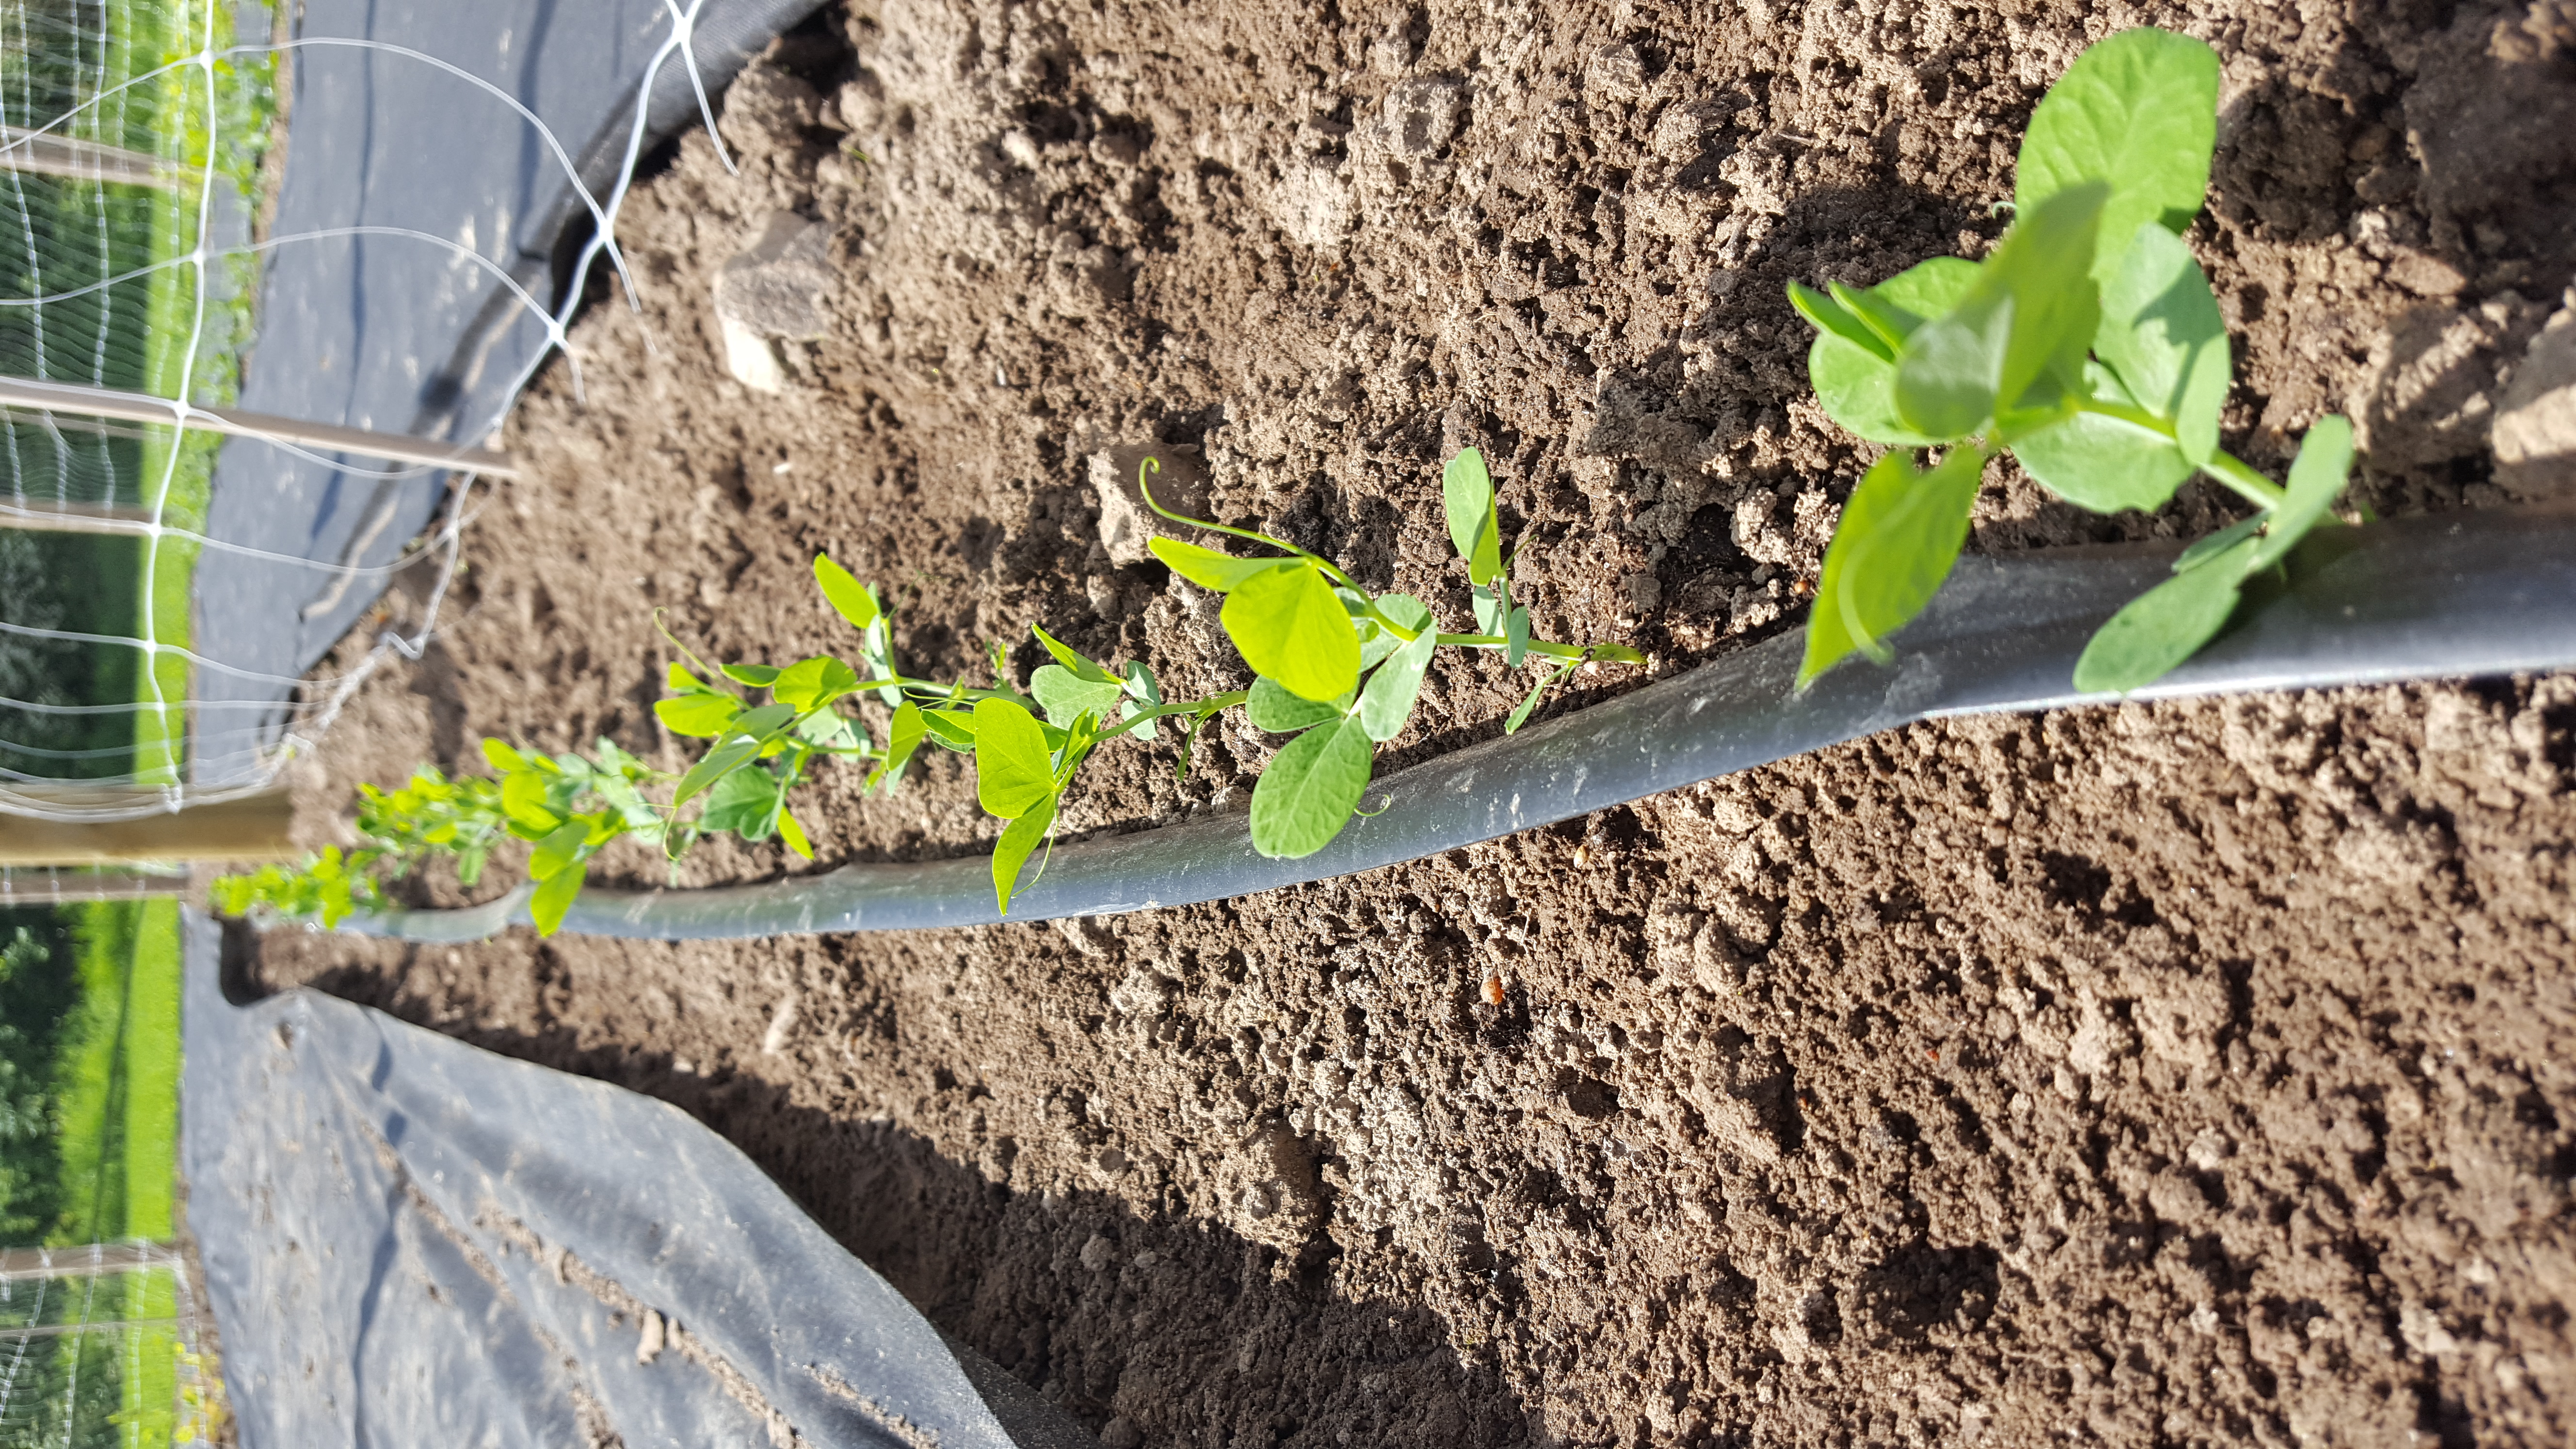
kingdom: Plantae
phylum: Tracheophyta
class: Magnoliopsida
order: Fabales
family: Fabaceae
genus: Lathyrus
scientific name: Lathyrus oleraceus
